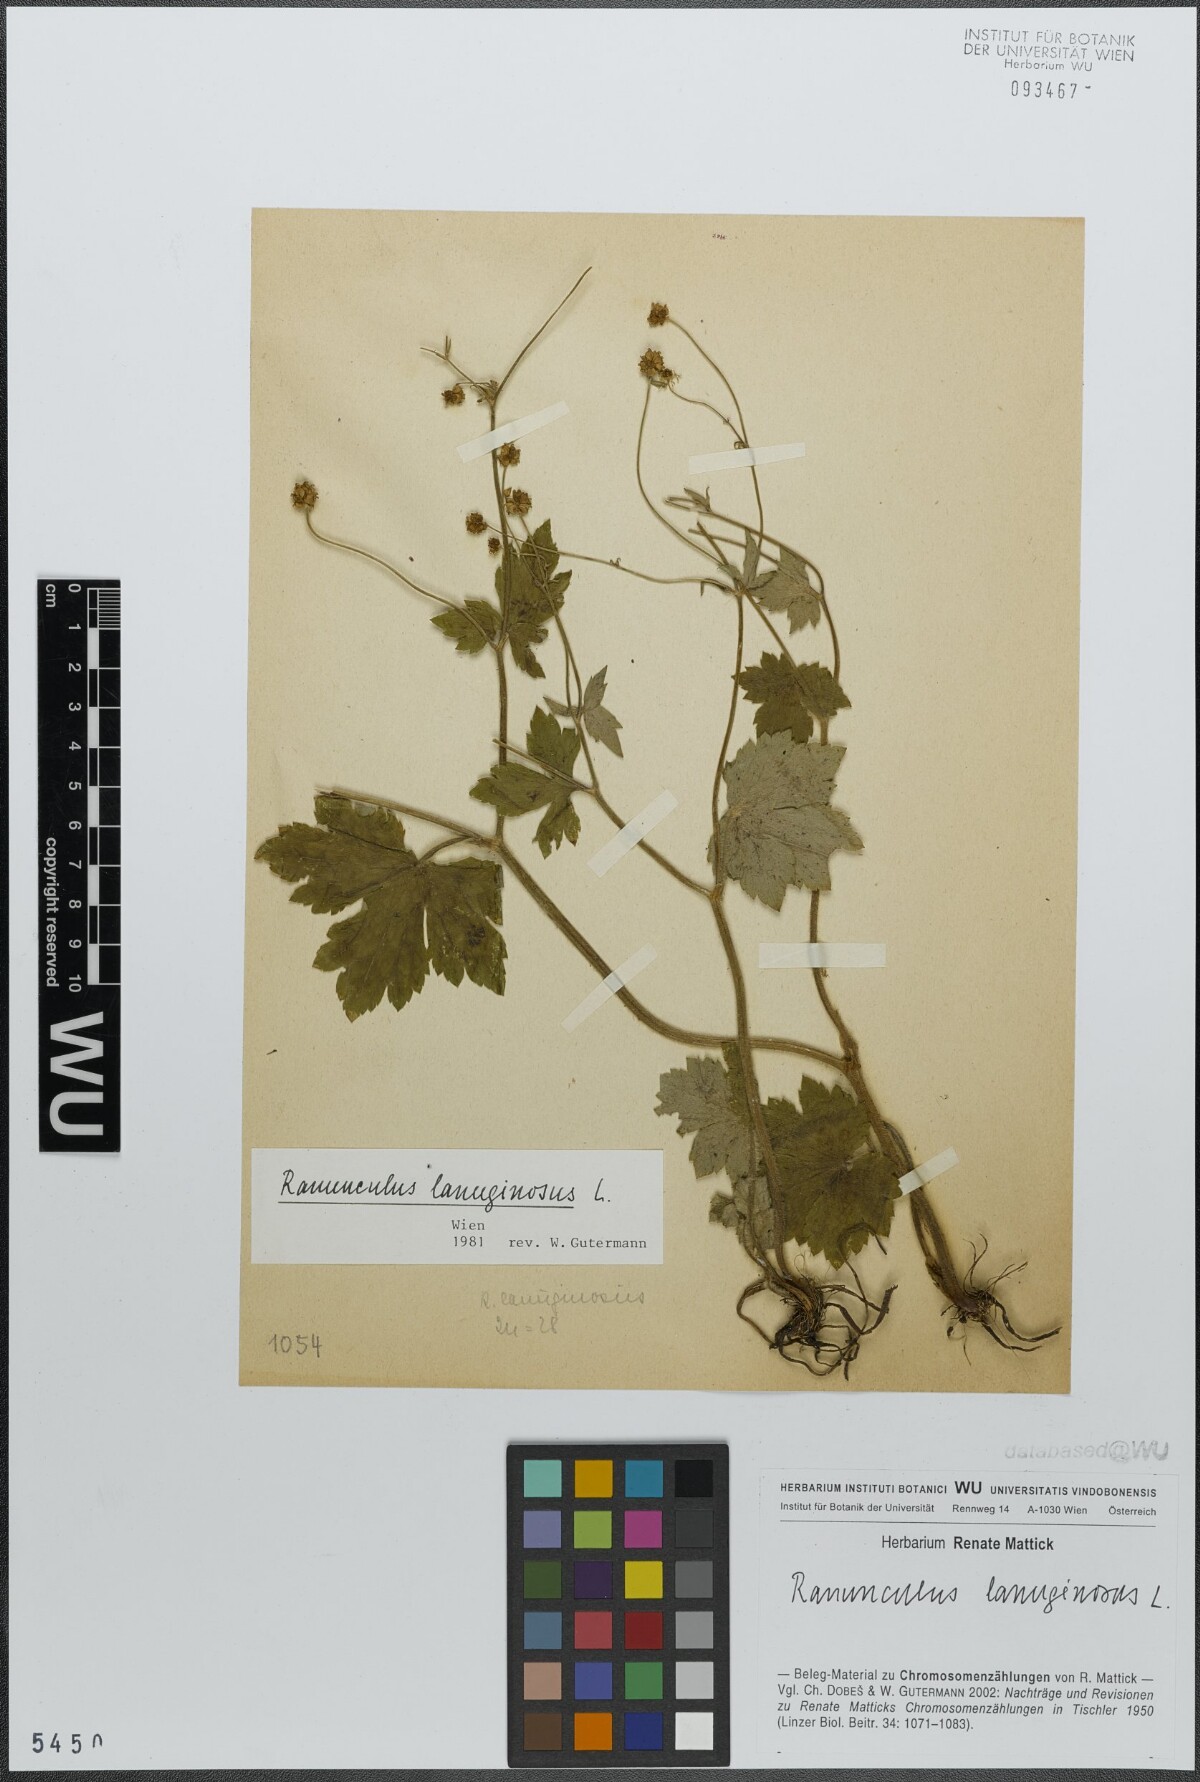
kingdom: Plantae
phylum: Tracheophyta
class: Magnoliopsida
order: Ranunculales
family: Ranunculaceae
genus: Ranunculus
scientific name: Ranunculus lanuginosus
